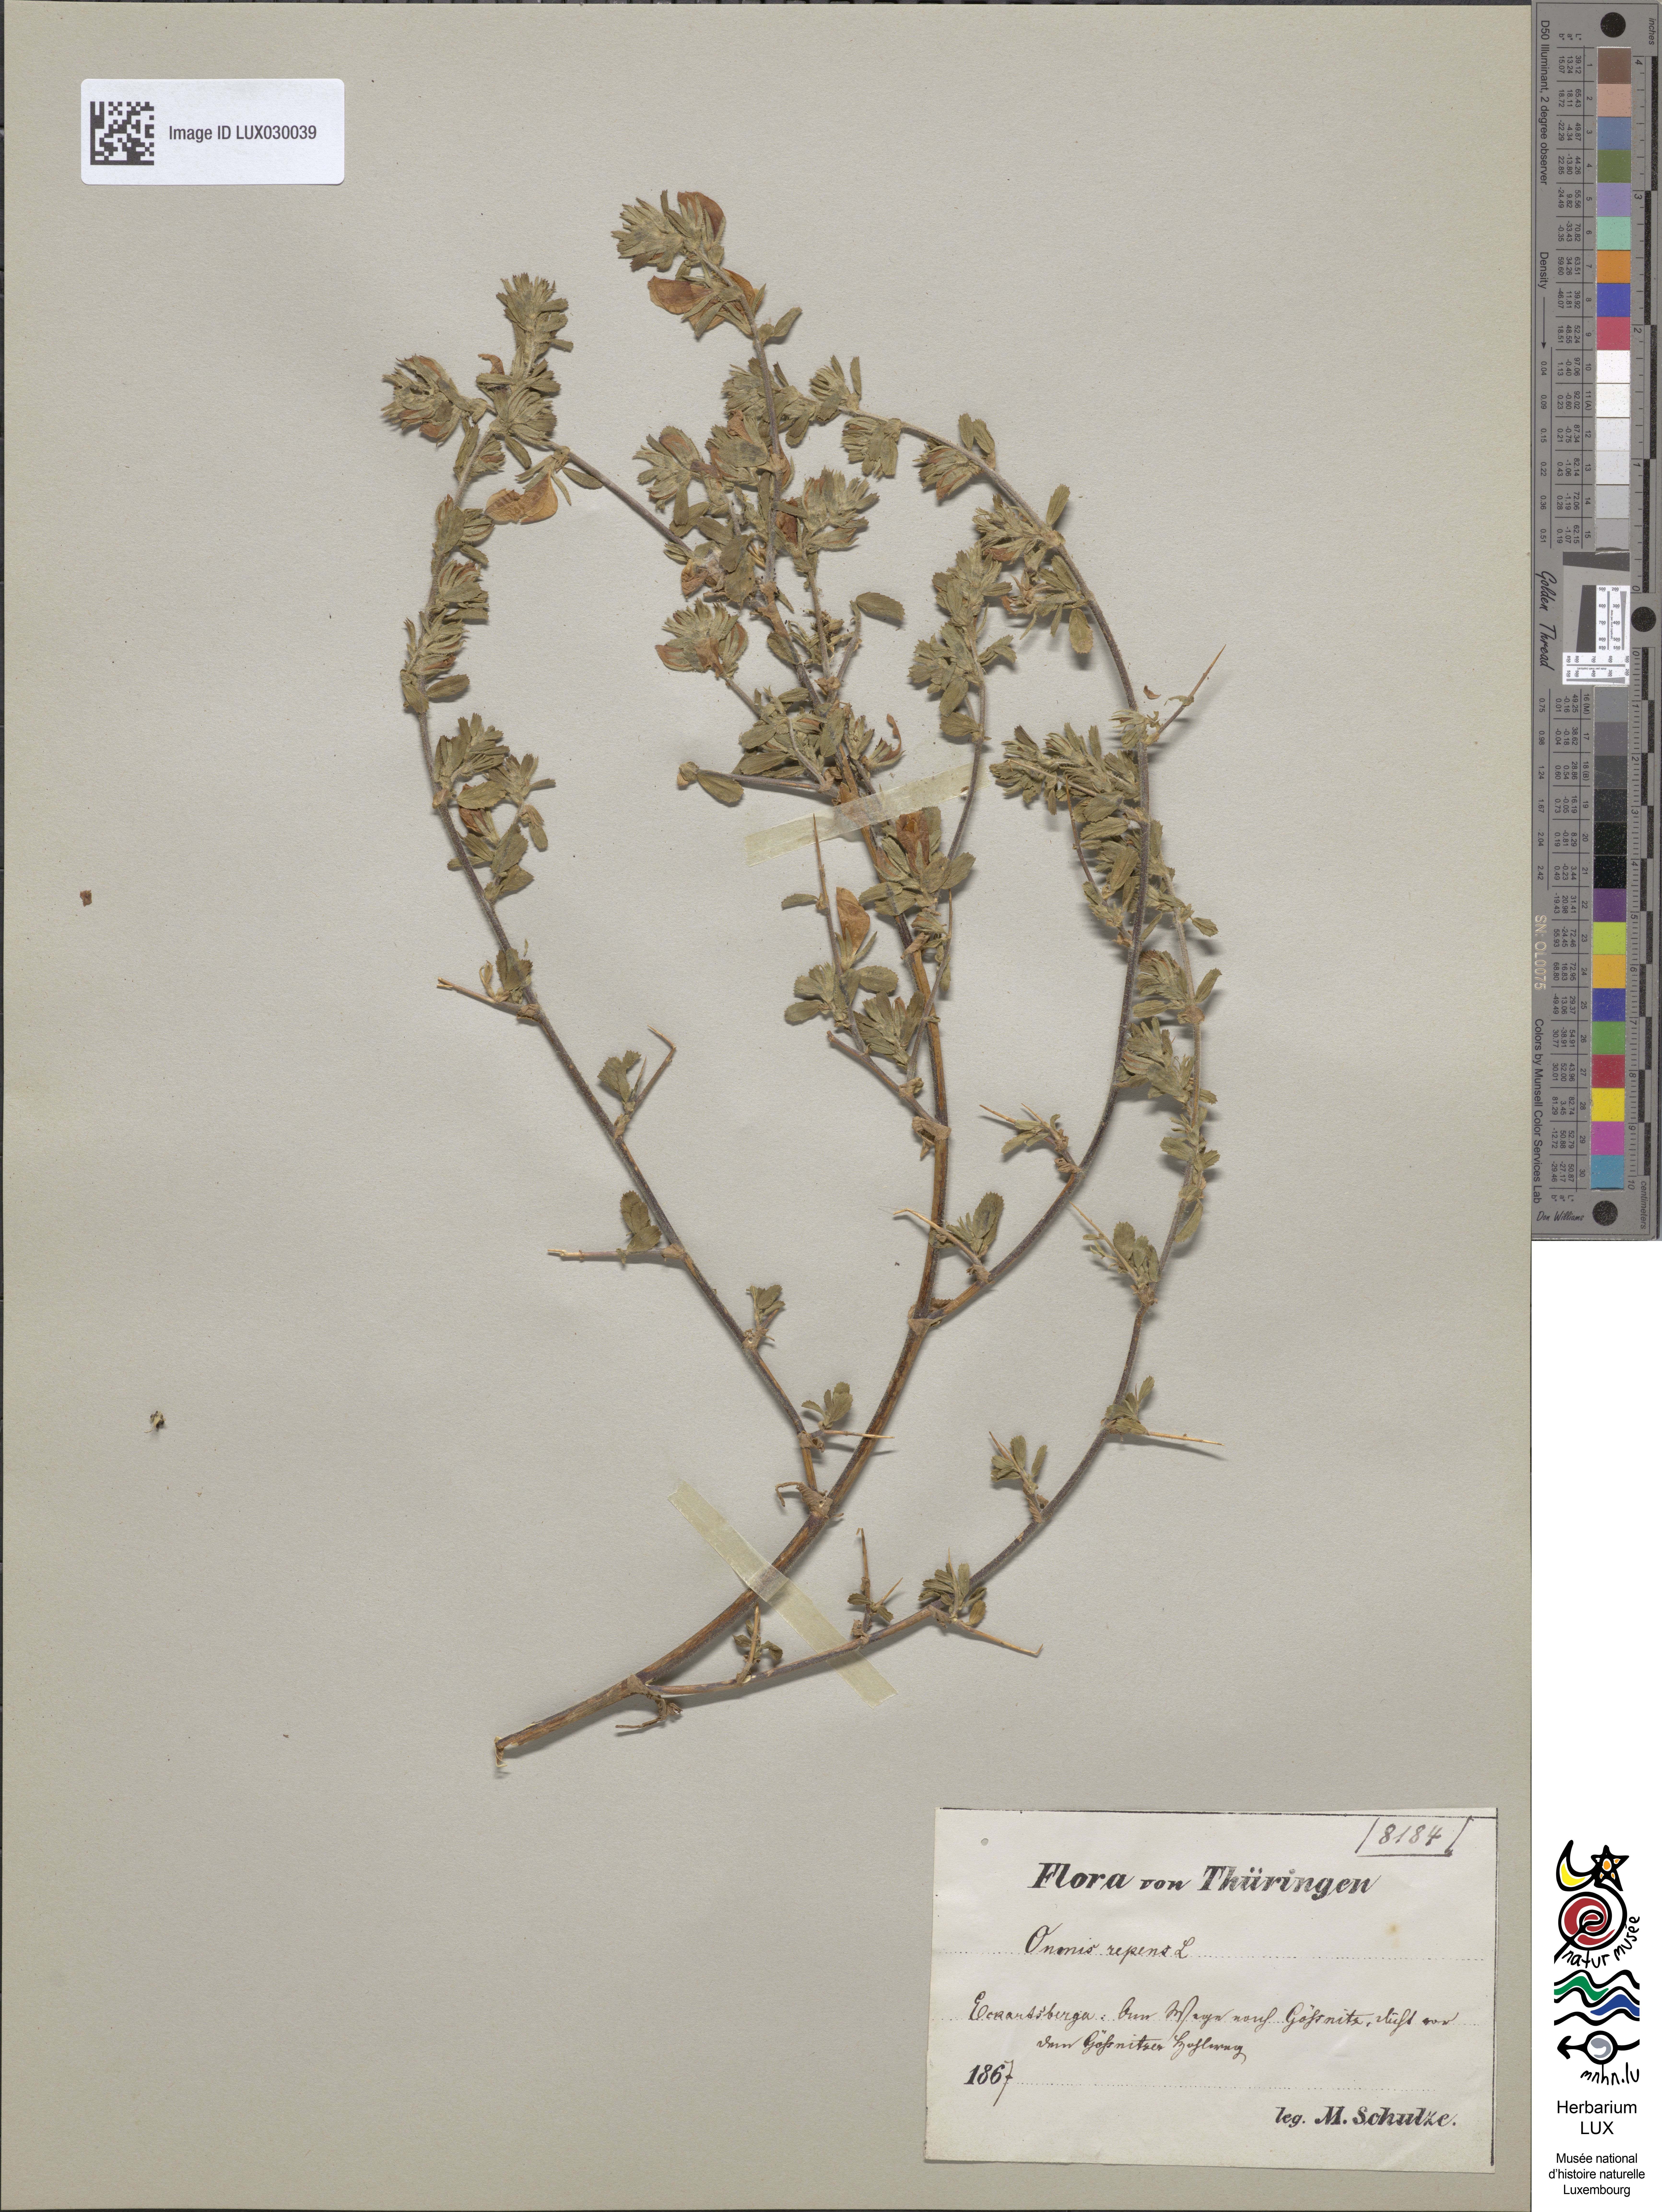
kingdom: Plantae
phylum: Tracheophyta
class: Magnoliopsida
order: Fabales
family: Fabaceae
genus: Ononis
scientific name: Ononis spinosa
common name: Spiny restharrow
